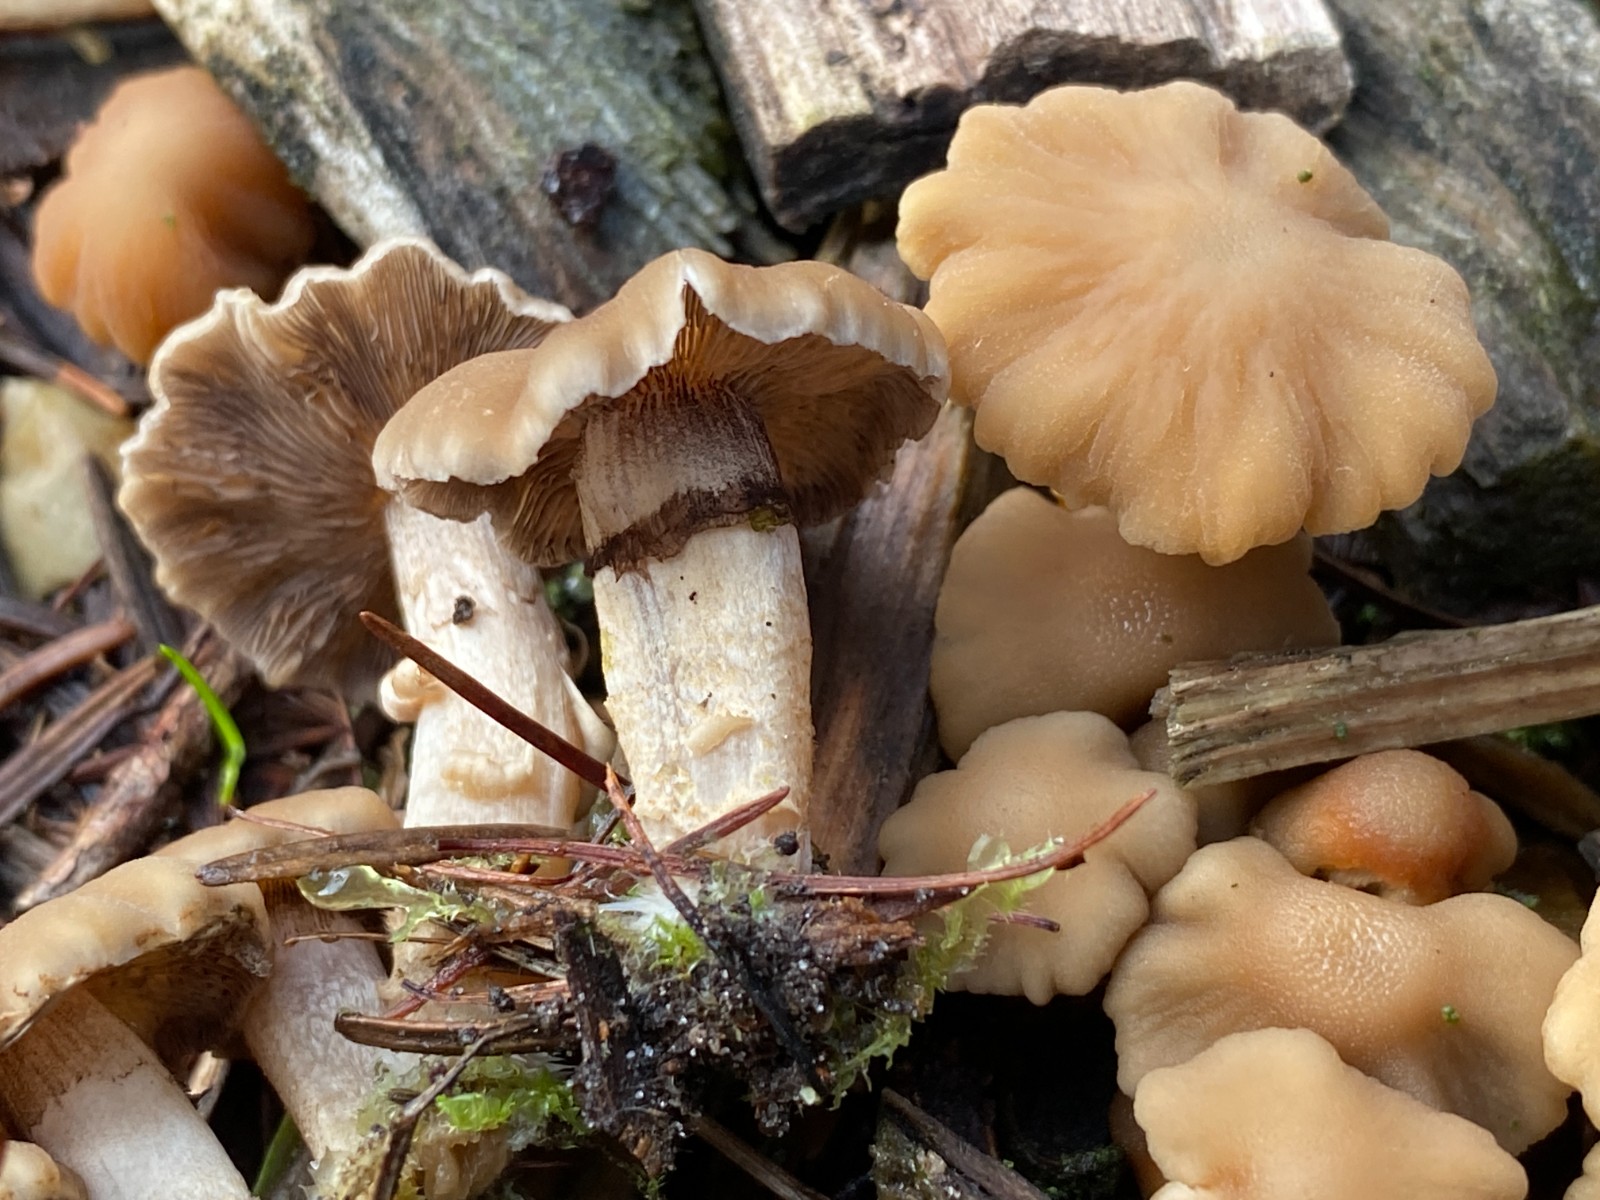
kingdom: Fungi
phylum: Basidiomycota
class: Agaricomycetes
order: Agaricales
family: Psathyrellaceae
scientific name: Psathyrellaceae
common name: mørkhatfamilien
